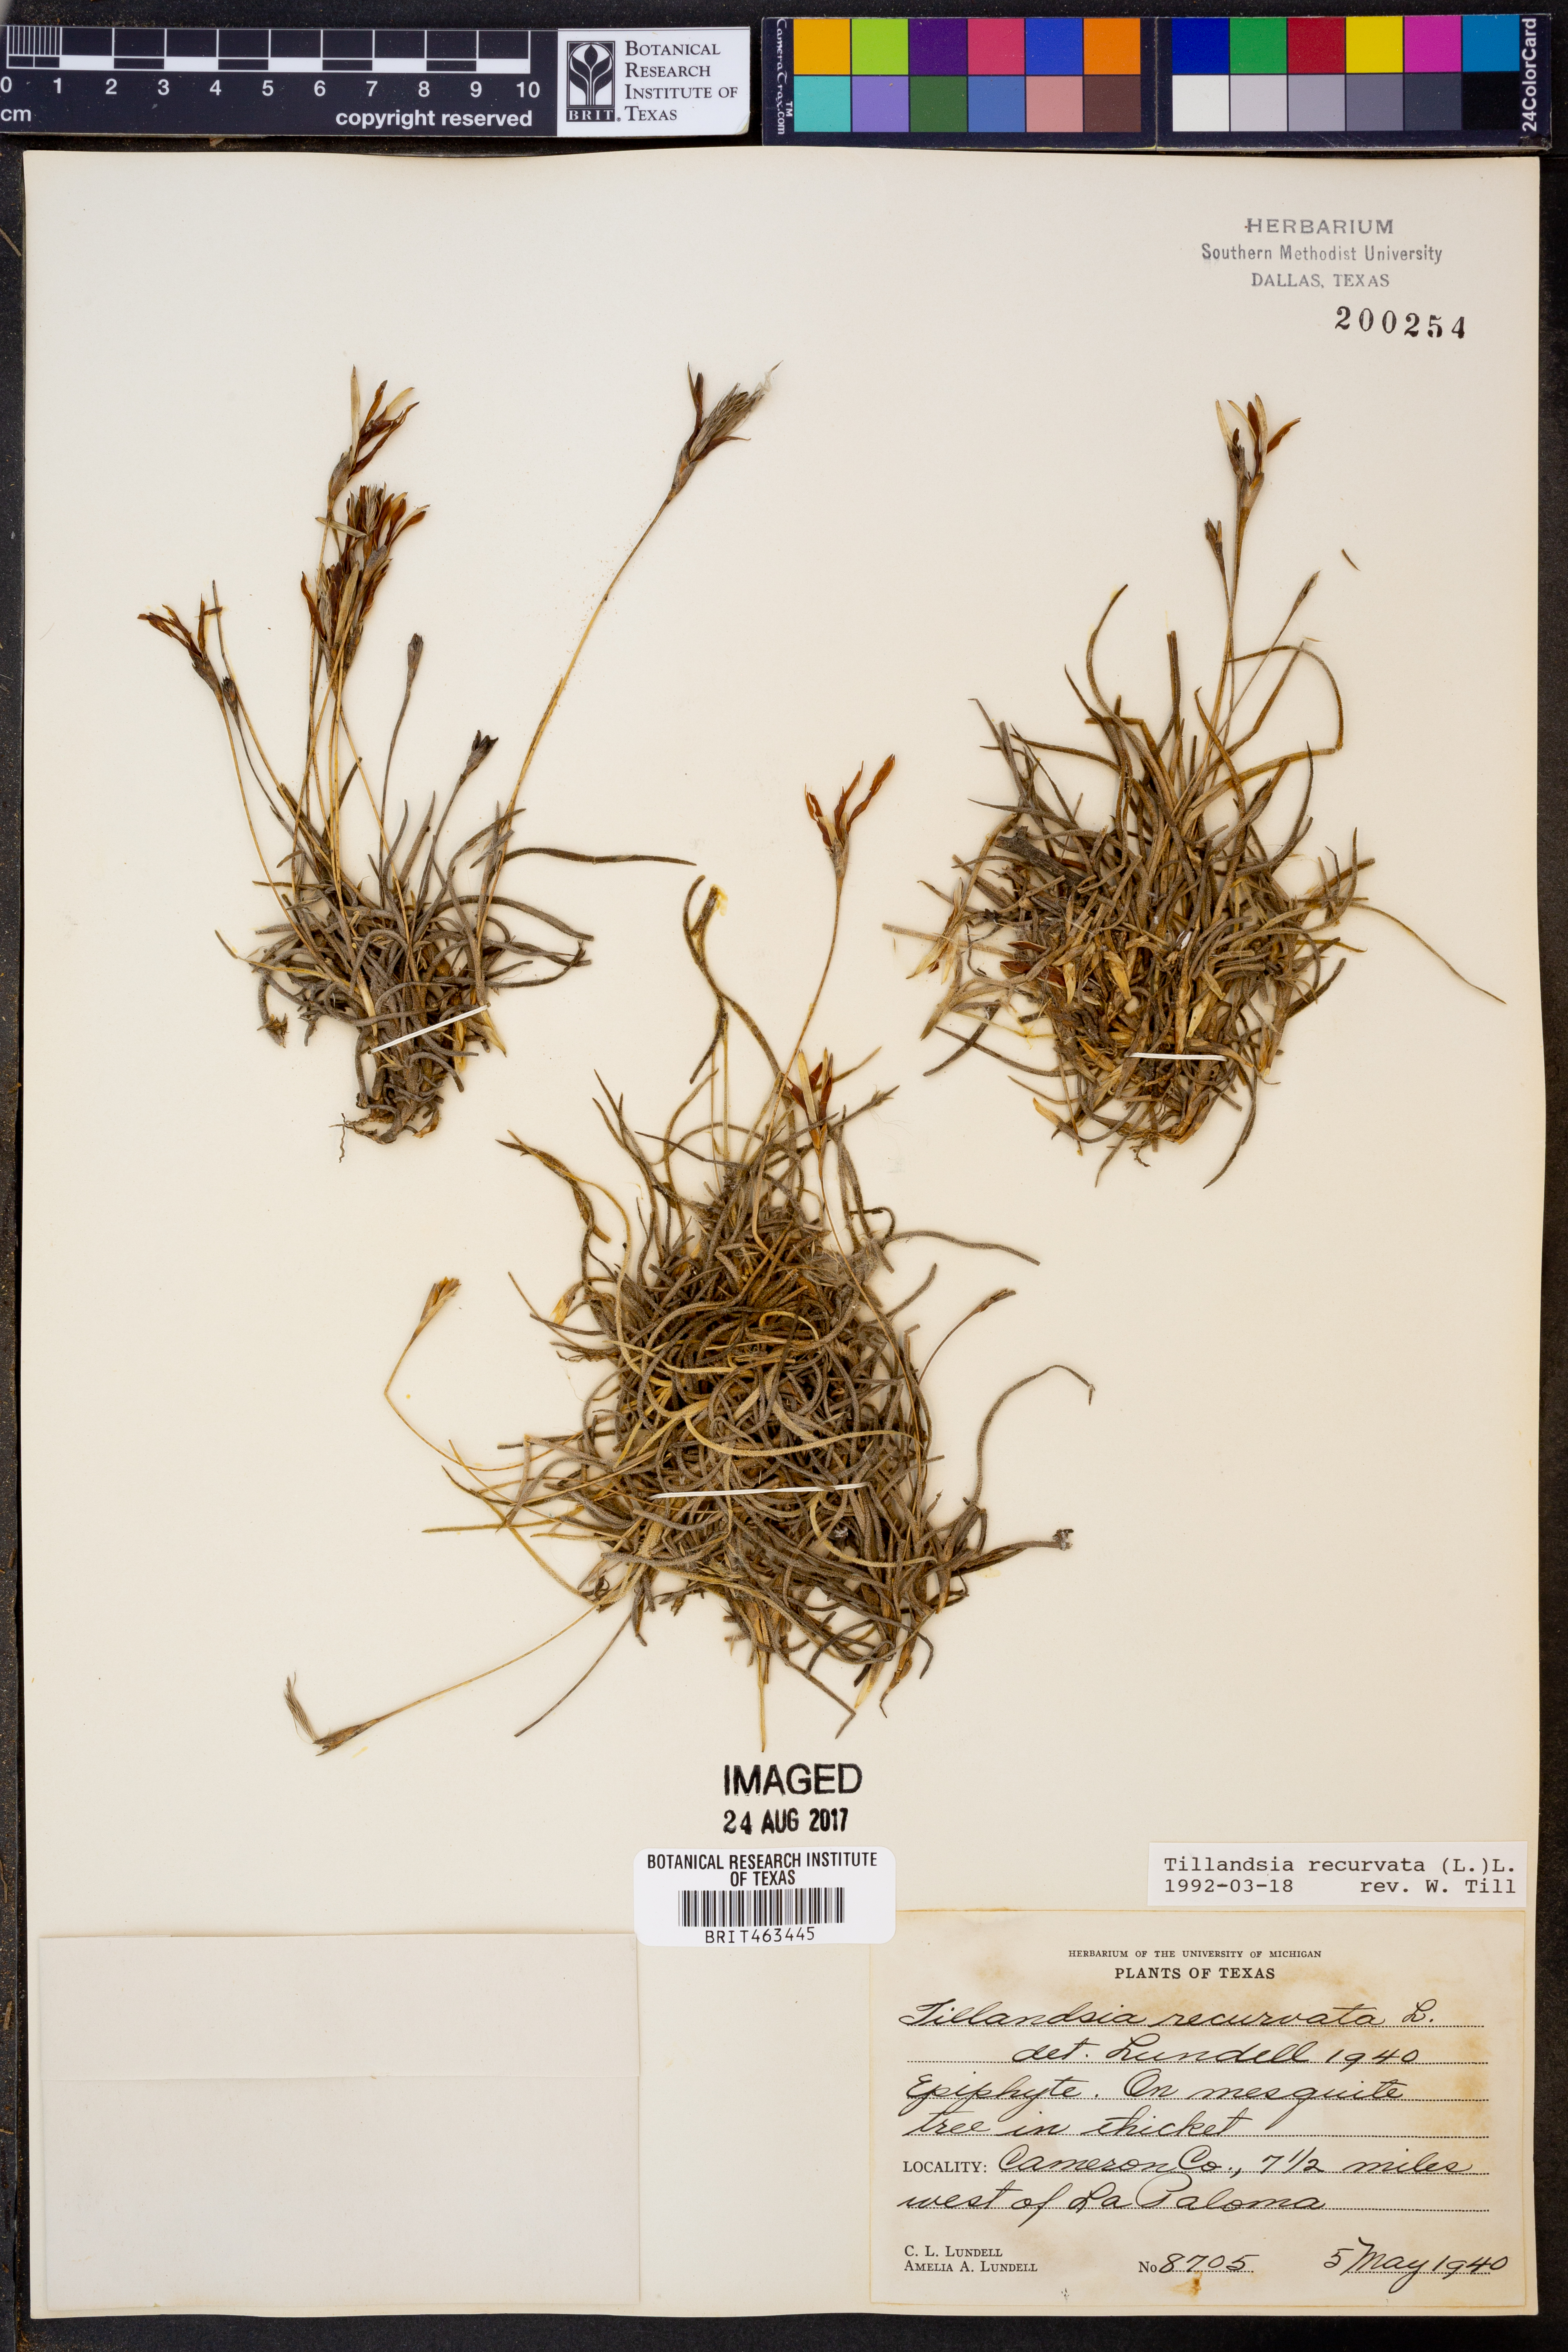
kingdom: Plantae
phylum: Tracheophyta
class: Liliopsida
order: Poales
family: Bromeliaceae
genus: Tillandsia
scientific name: Tillandsia recurvata
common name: Small ballmoss
